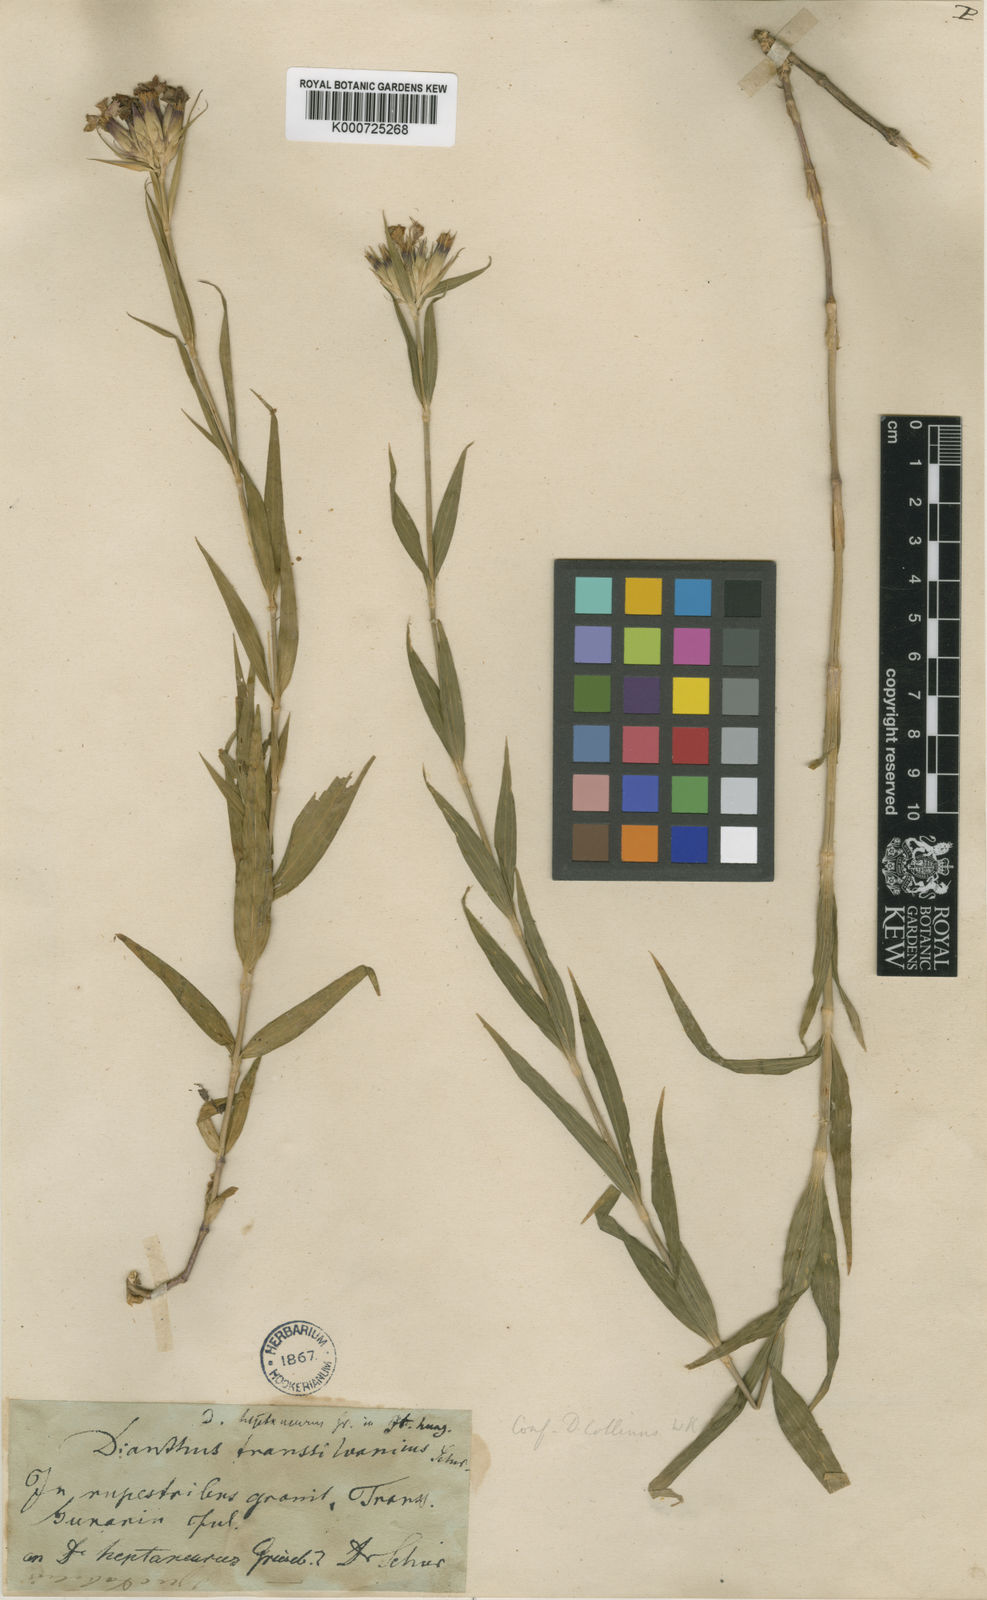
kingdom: Plantae
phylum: Tracheophyta
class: Magnoliopsida
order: Caryophyllales
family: Caryophyllaceae
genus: Dianthus
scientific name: Dianthus trifasciculatus
